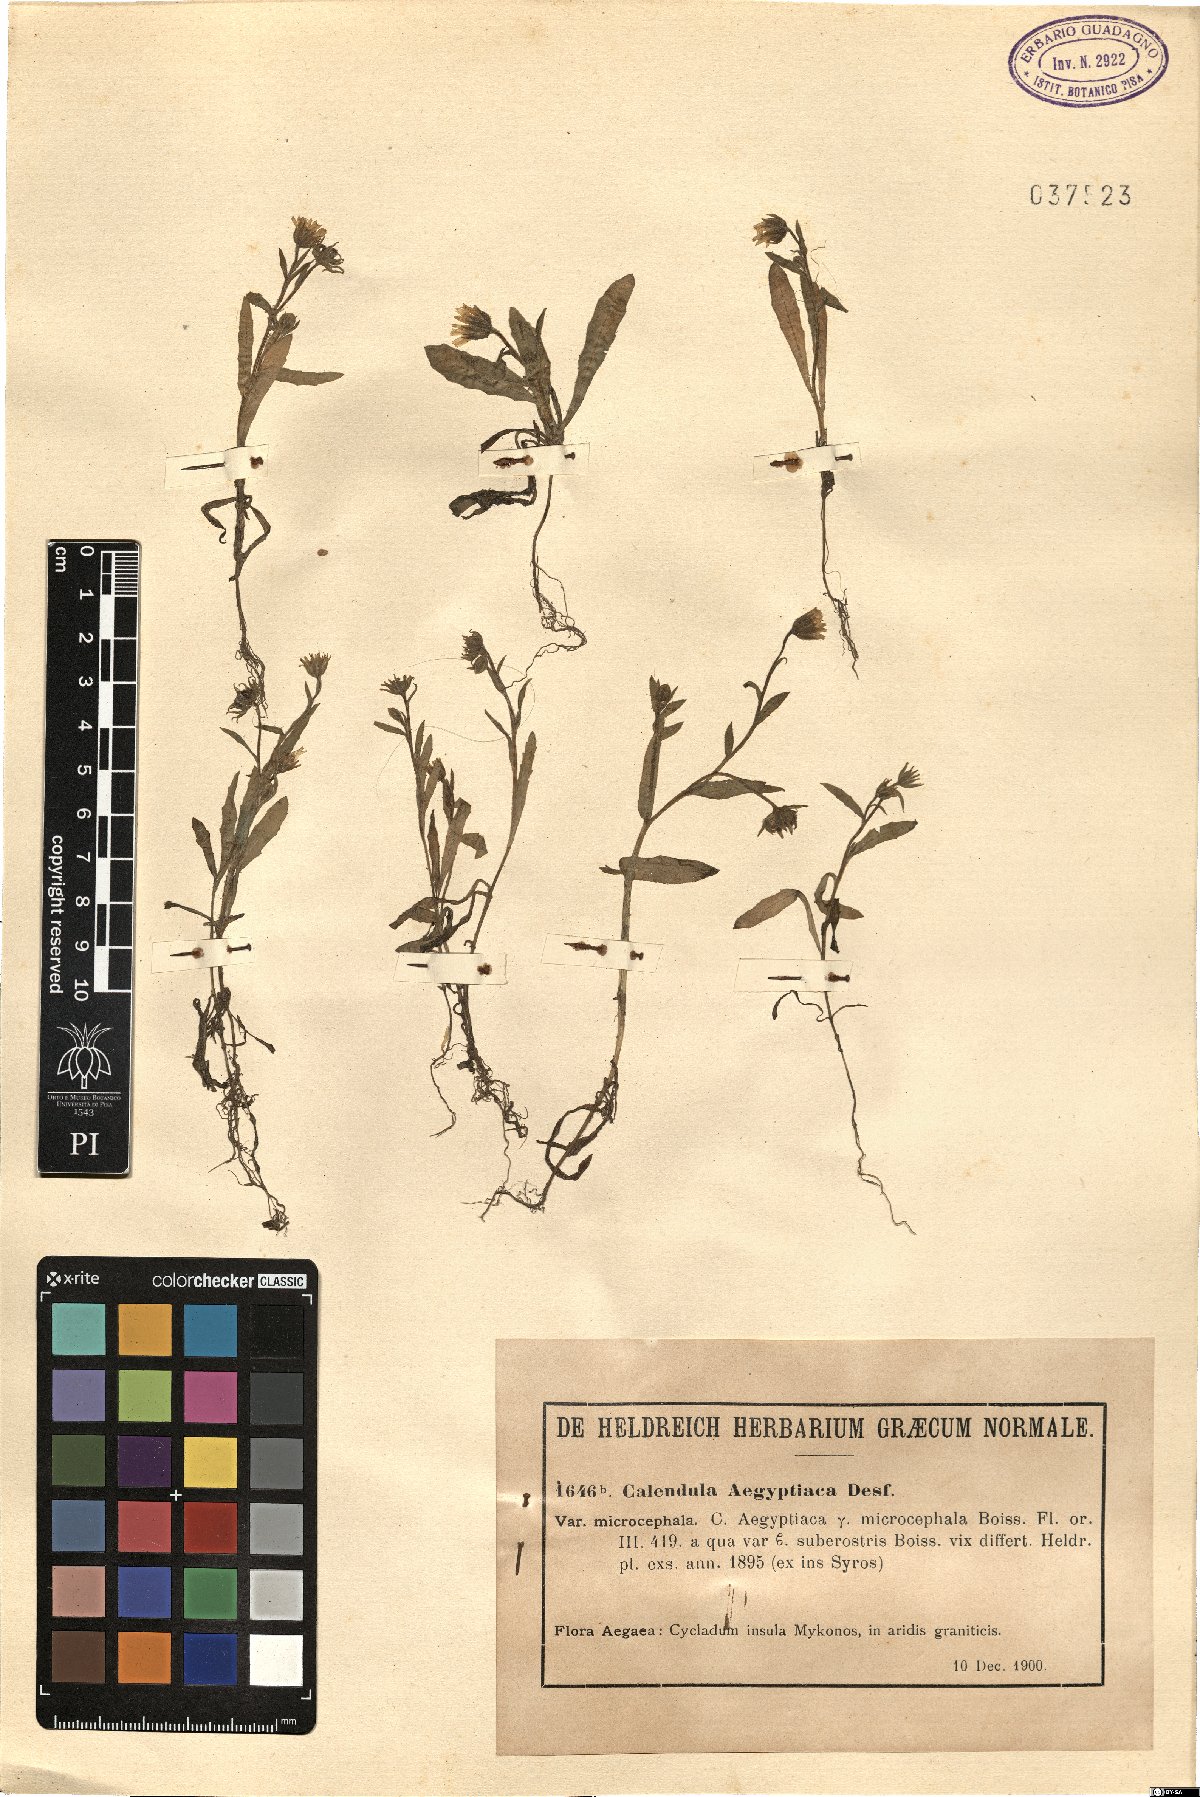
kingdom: Plantae
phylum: Tracheophyta
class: Magnoliopsida
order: Asterales
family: Asteraceae
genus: Calendula
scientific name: Calendula arvensis
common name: Field marigold
